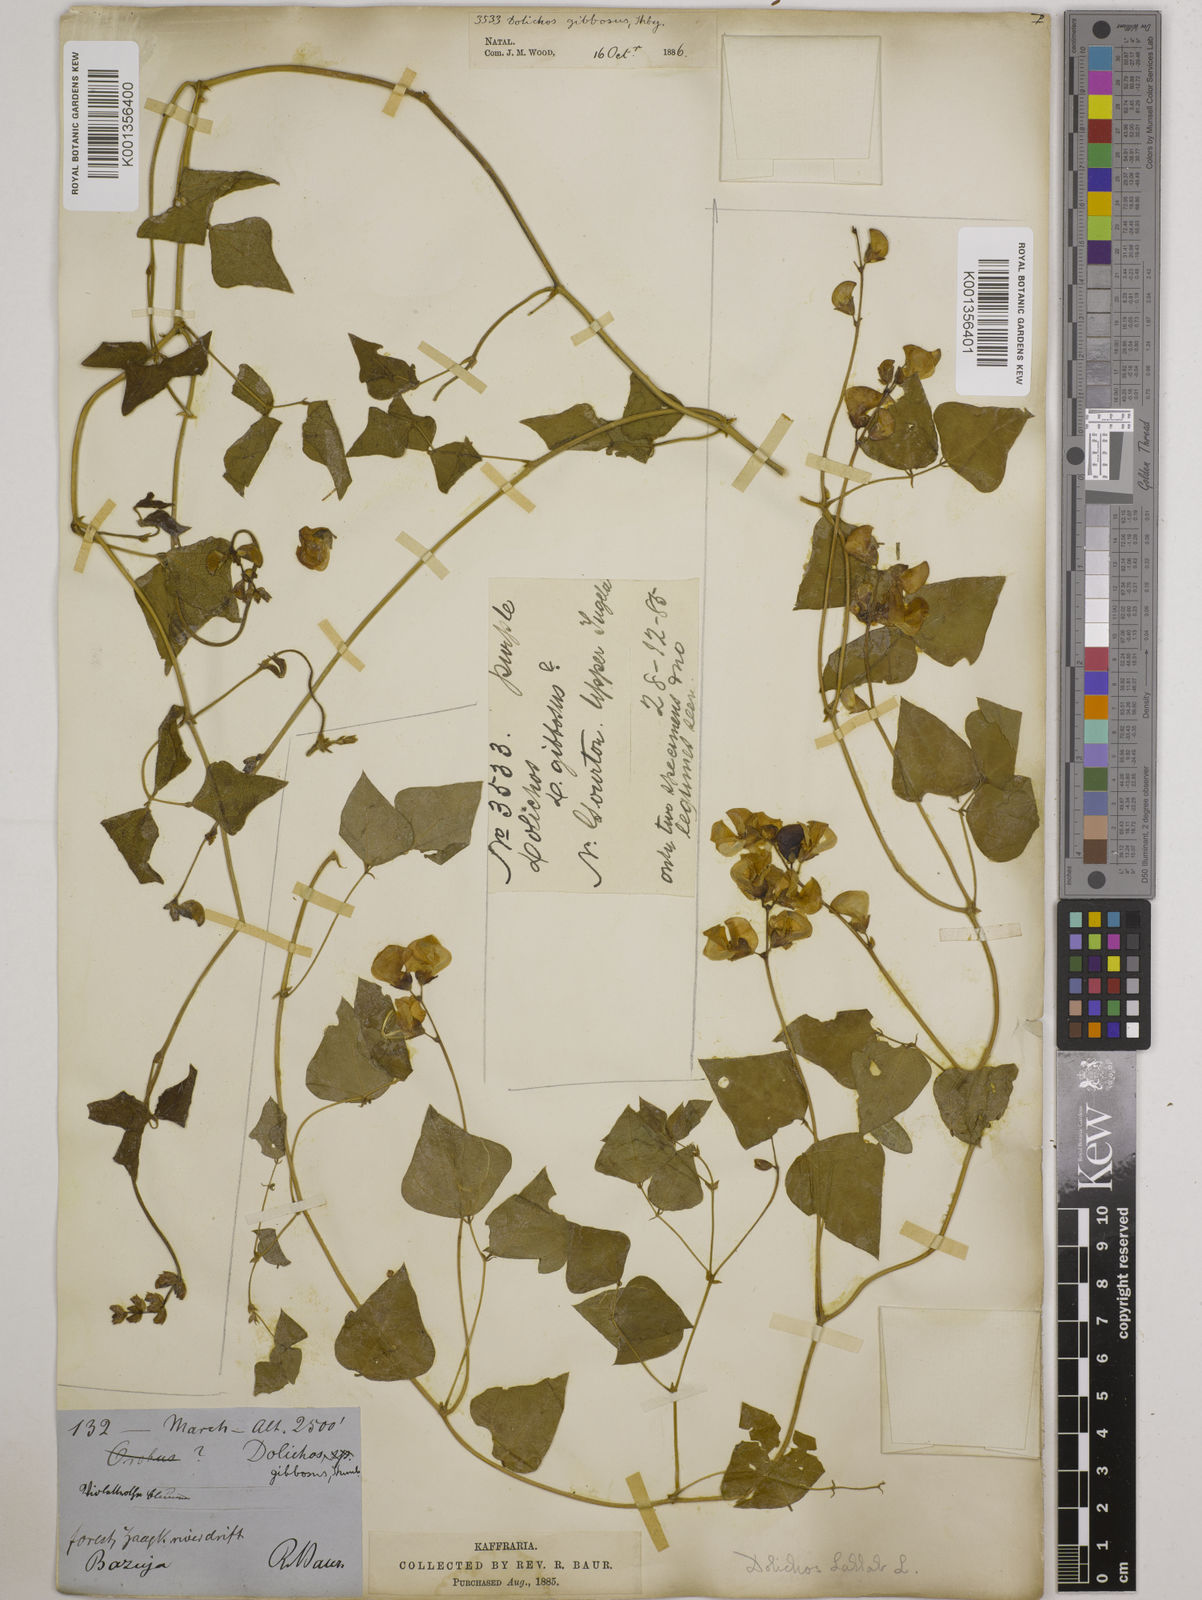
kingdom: Plantae
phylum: Tracheophyta
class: Magnoliopsida
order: Fabales
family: Fabaceae
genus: Lablab
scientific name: Lablab purpureus
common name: Lablab-bean
